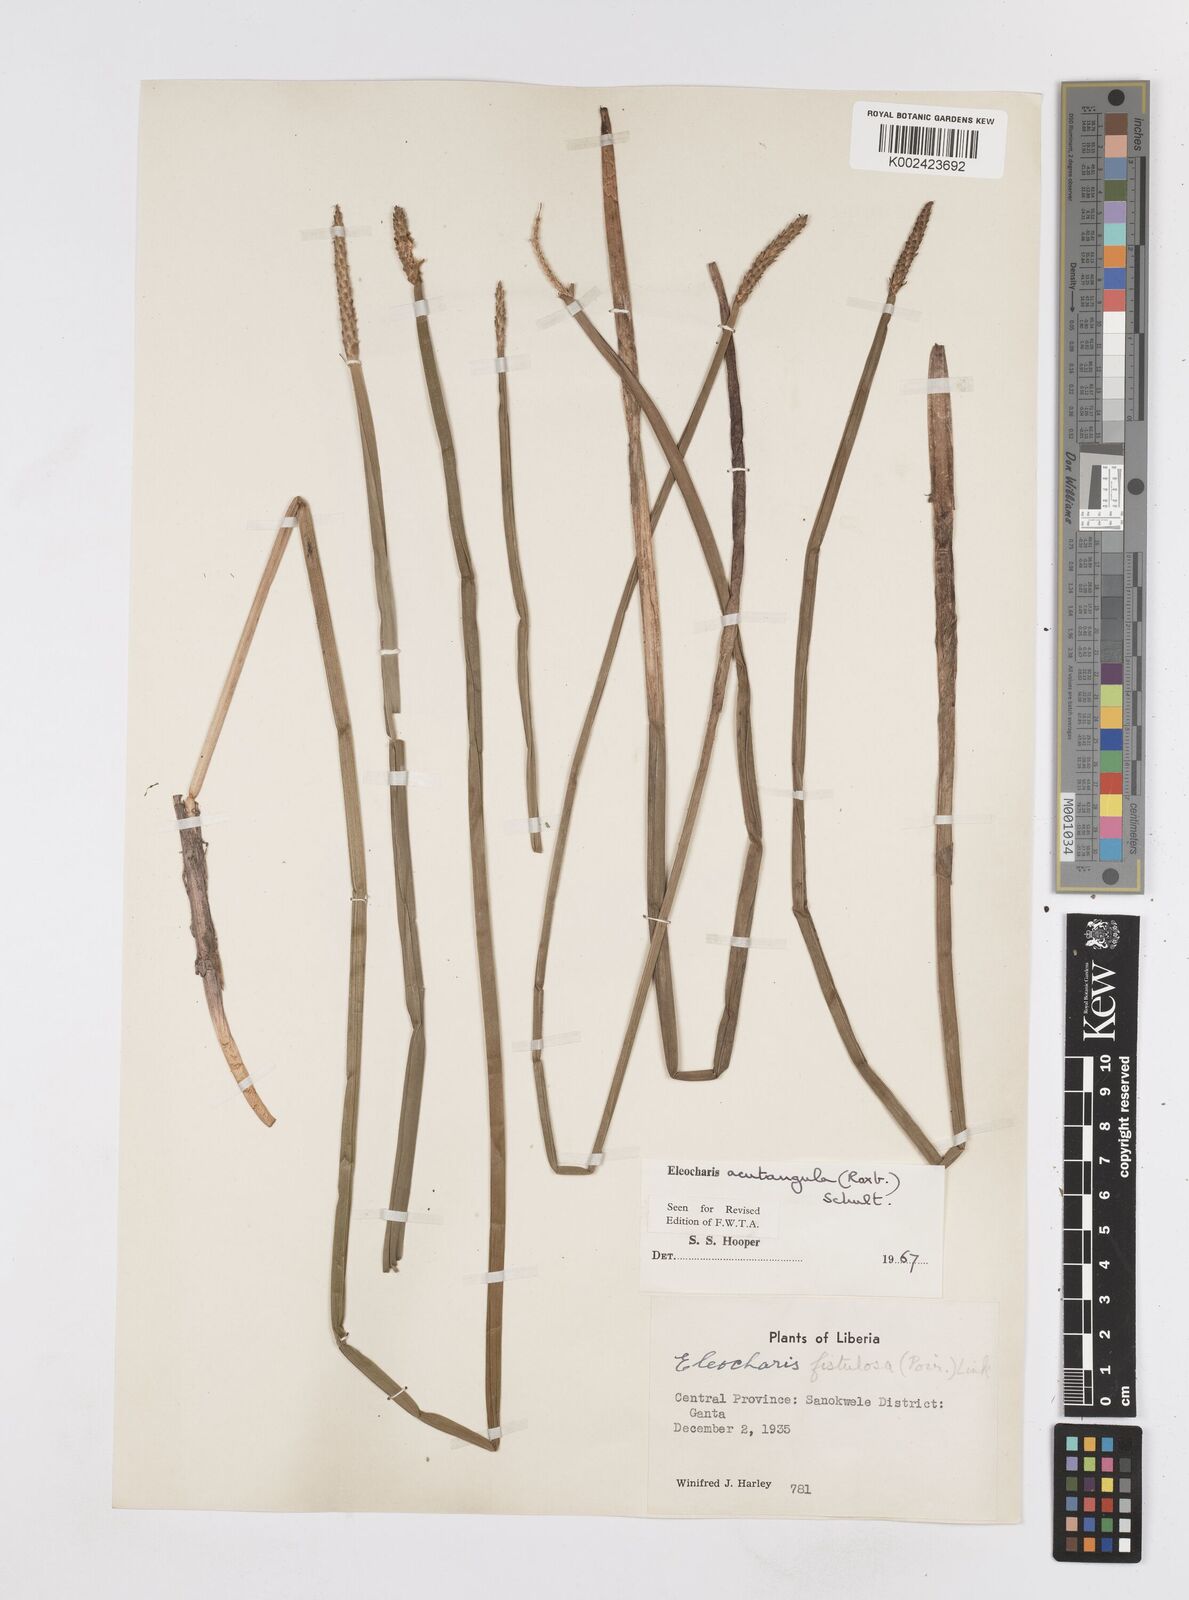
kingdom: Plantae
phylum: Tracheophyta
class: Liliopsida
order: Poales
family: Cyperaceae
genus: Eleocharis
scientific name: Eleocharis acutangula
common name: Acute spikerush
